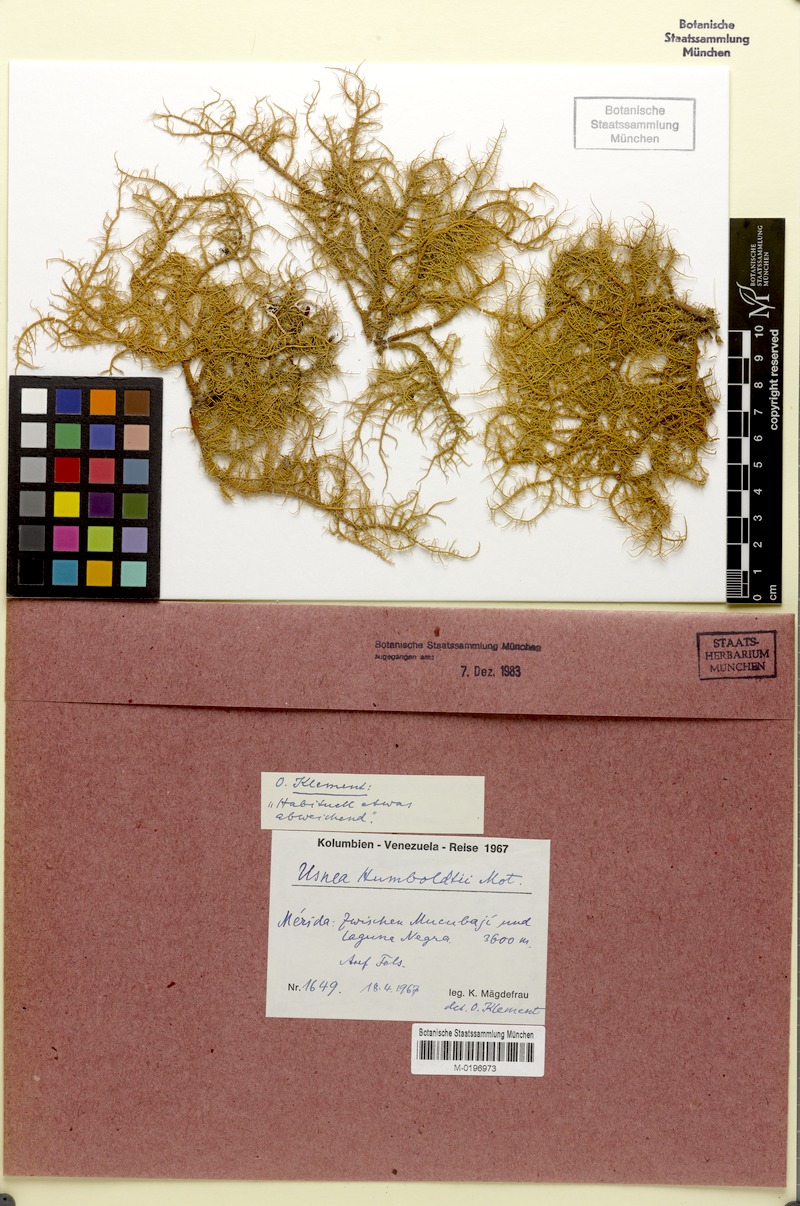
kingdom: Fungi
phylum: Ascomycota
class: Lecanoromycetes
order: Lecanorales
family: Parmeliaceae
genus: Usnea
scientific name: Usnea
